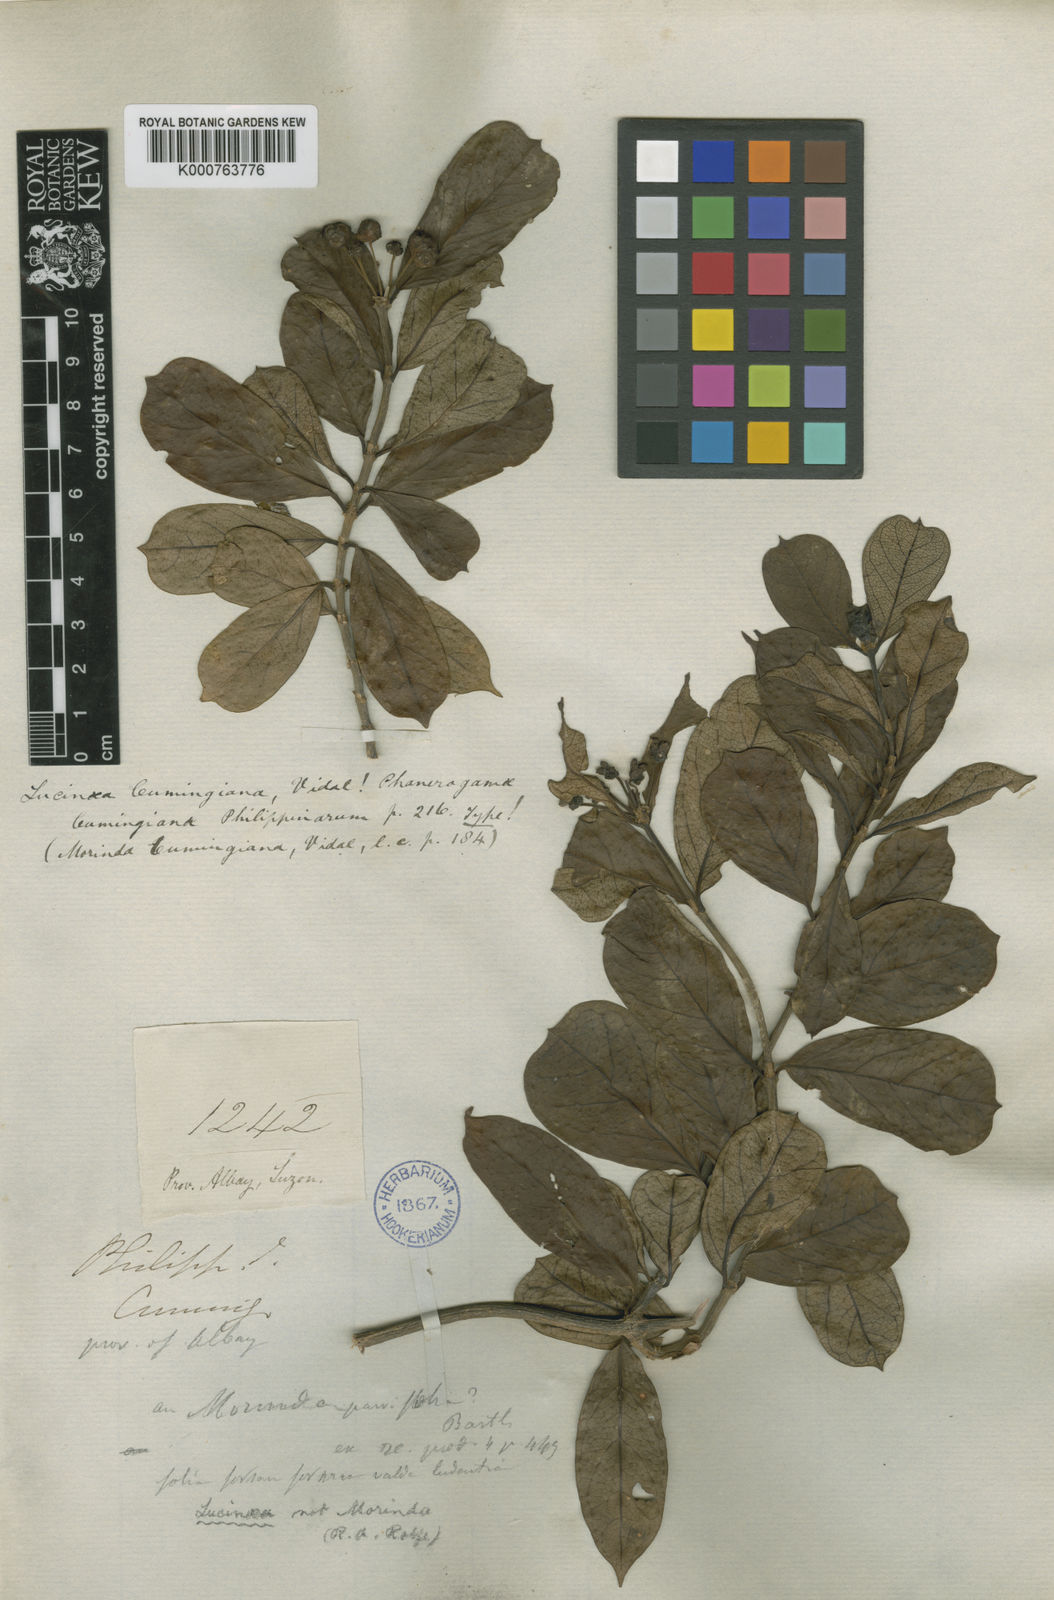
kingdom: Plantae
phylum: Tracheophyta
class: Magnoliopsida
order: Gentianales
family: Rubiaceae
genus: Gynochthodes
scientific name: Gynochthodes parvifolia
